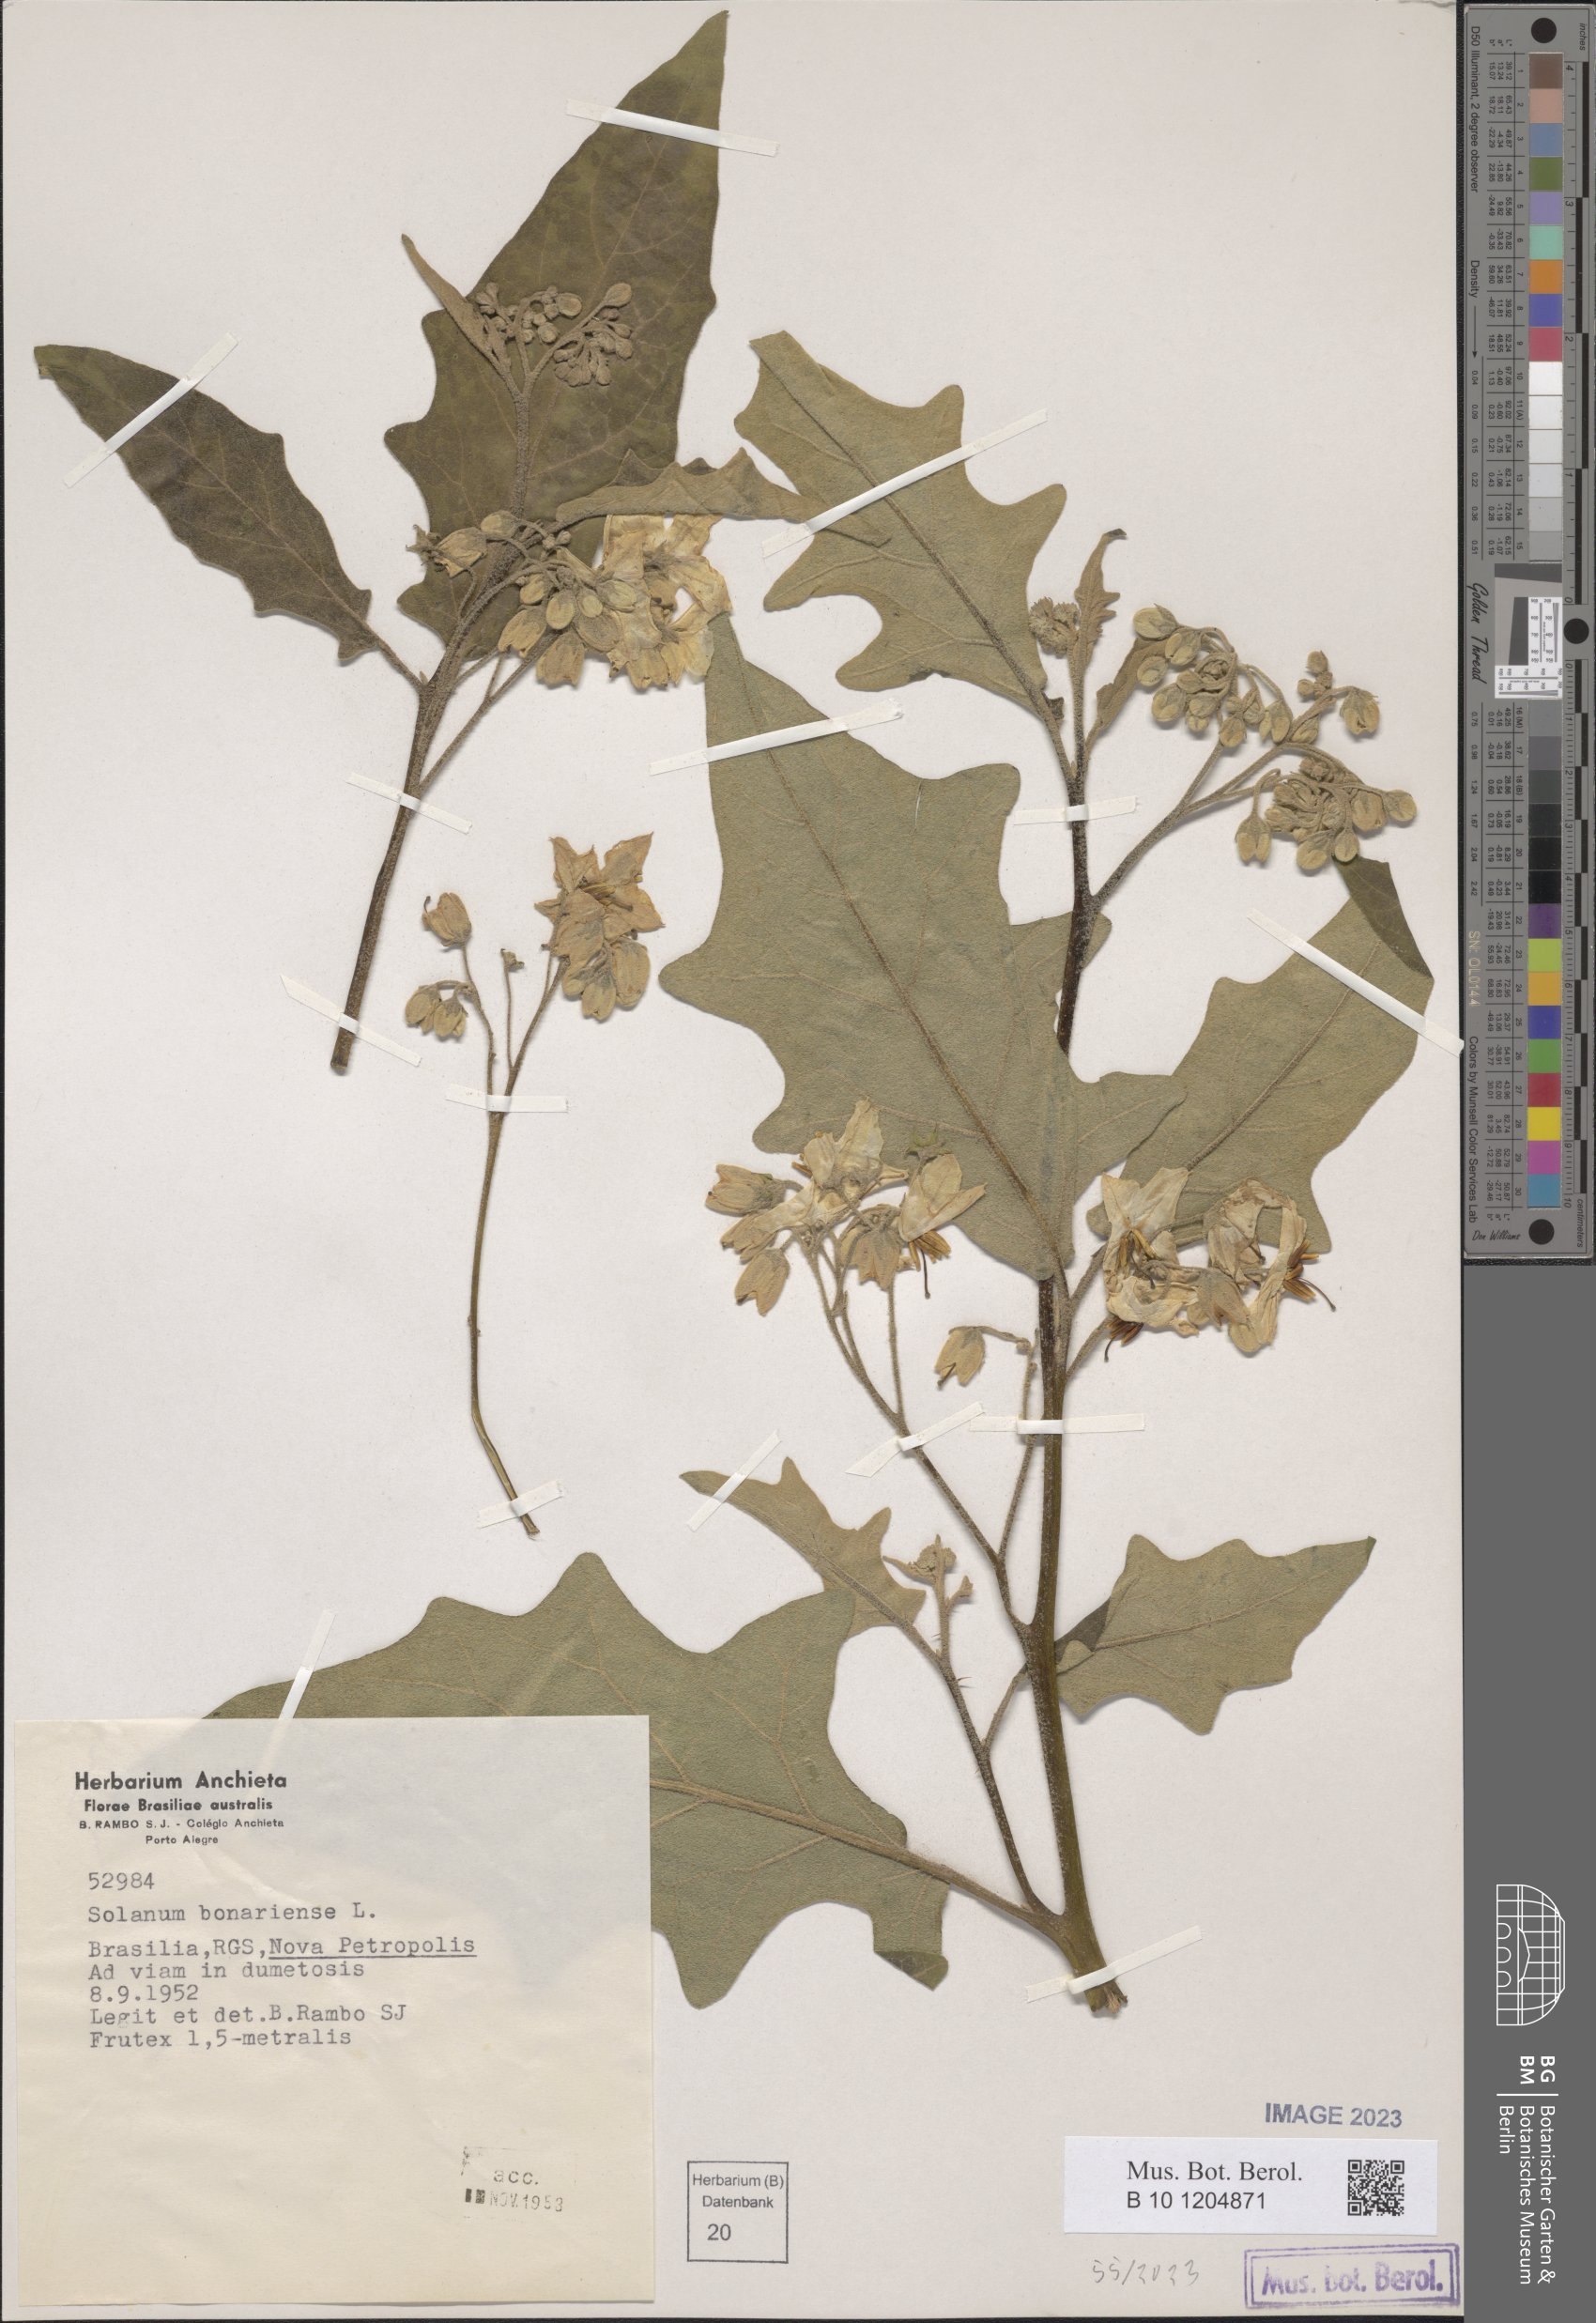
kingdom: Plantae
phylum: Tracheophyta
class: Magnoliopsida
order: Solanales
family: Solanaceae
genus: Solanum
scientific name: Solanum bonariense
